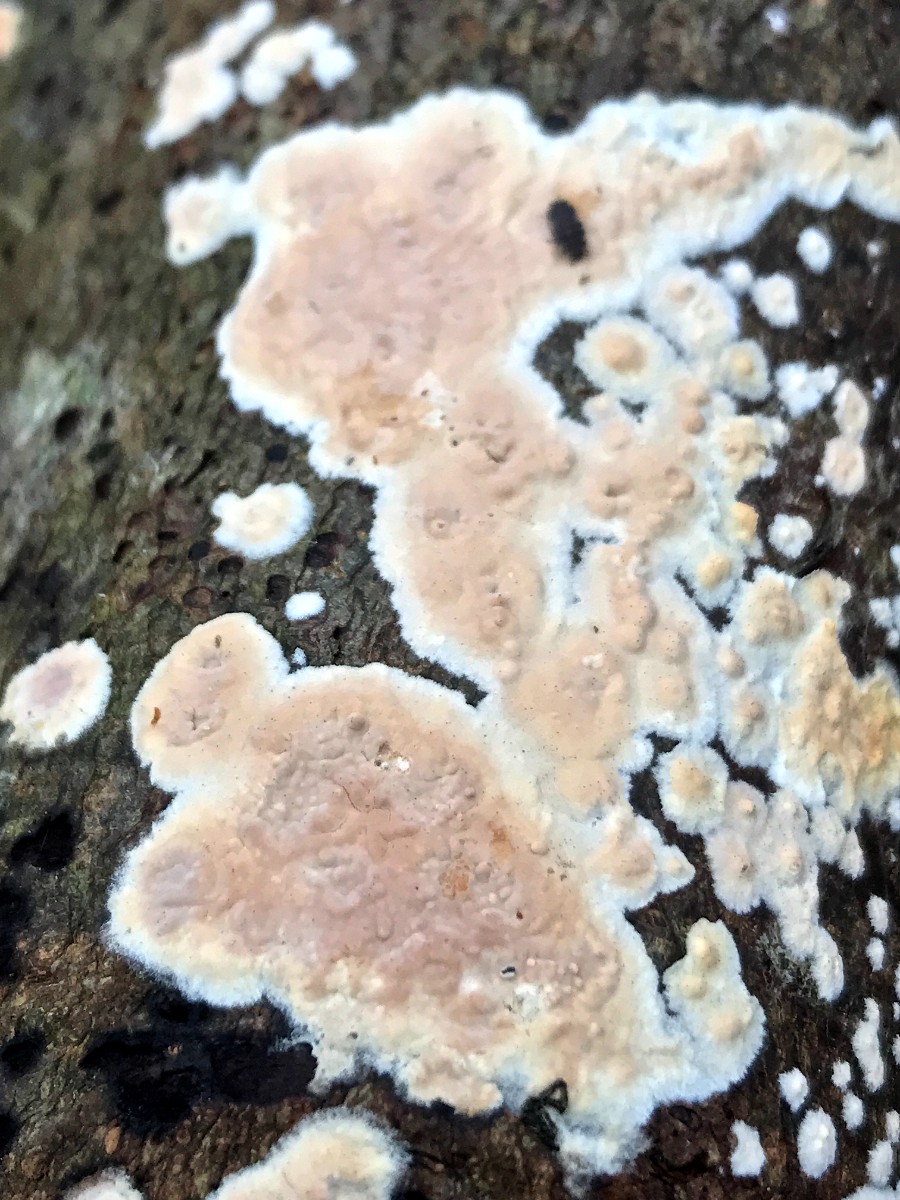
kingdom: Fungi
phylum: Basidiomycota
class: Agaricomycetes
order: Agaricales
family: Physalacriaceae
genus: Cylindrobasidium
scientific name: Cylindrobasidium evolvens
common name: sprækkehinde
